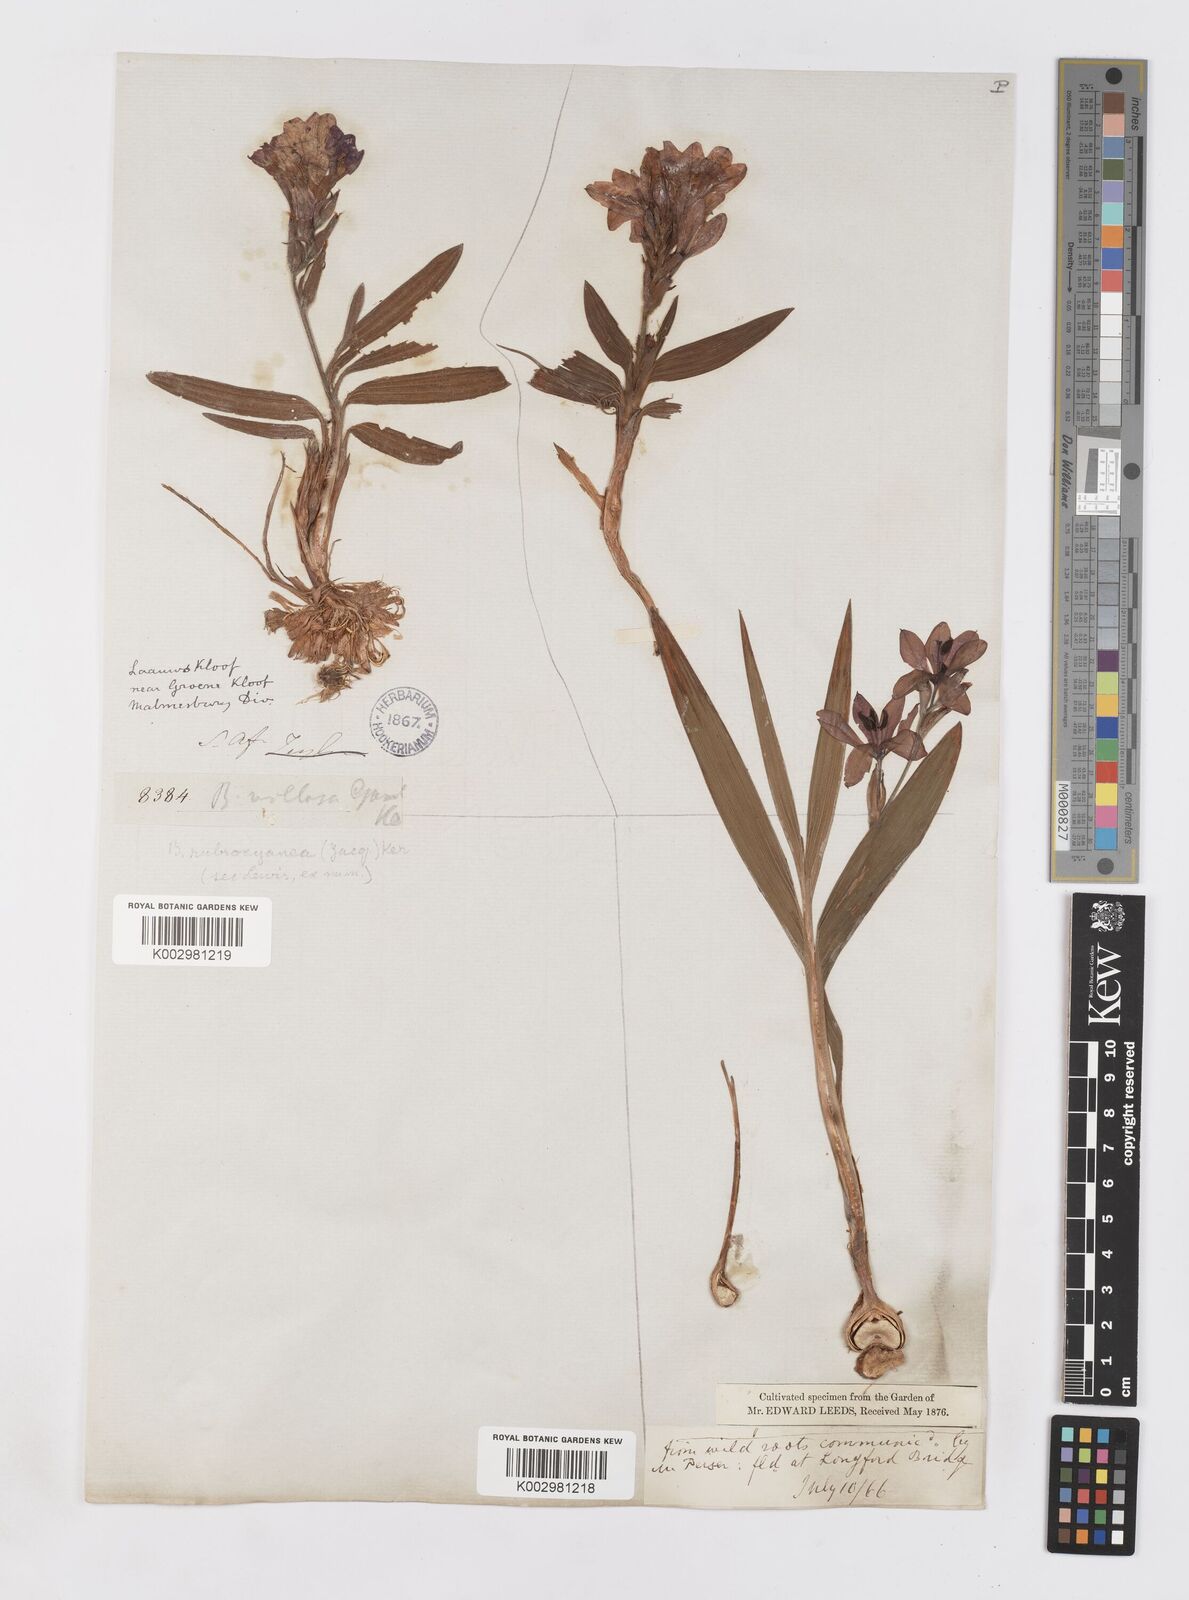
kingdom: Plantae
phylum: Tracheophyta
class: Liliopsida
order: Asparagales
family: Iridaceae
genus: Babiana
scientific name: Babiana rubrocyanea
